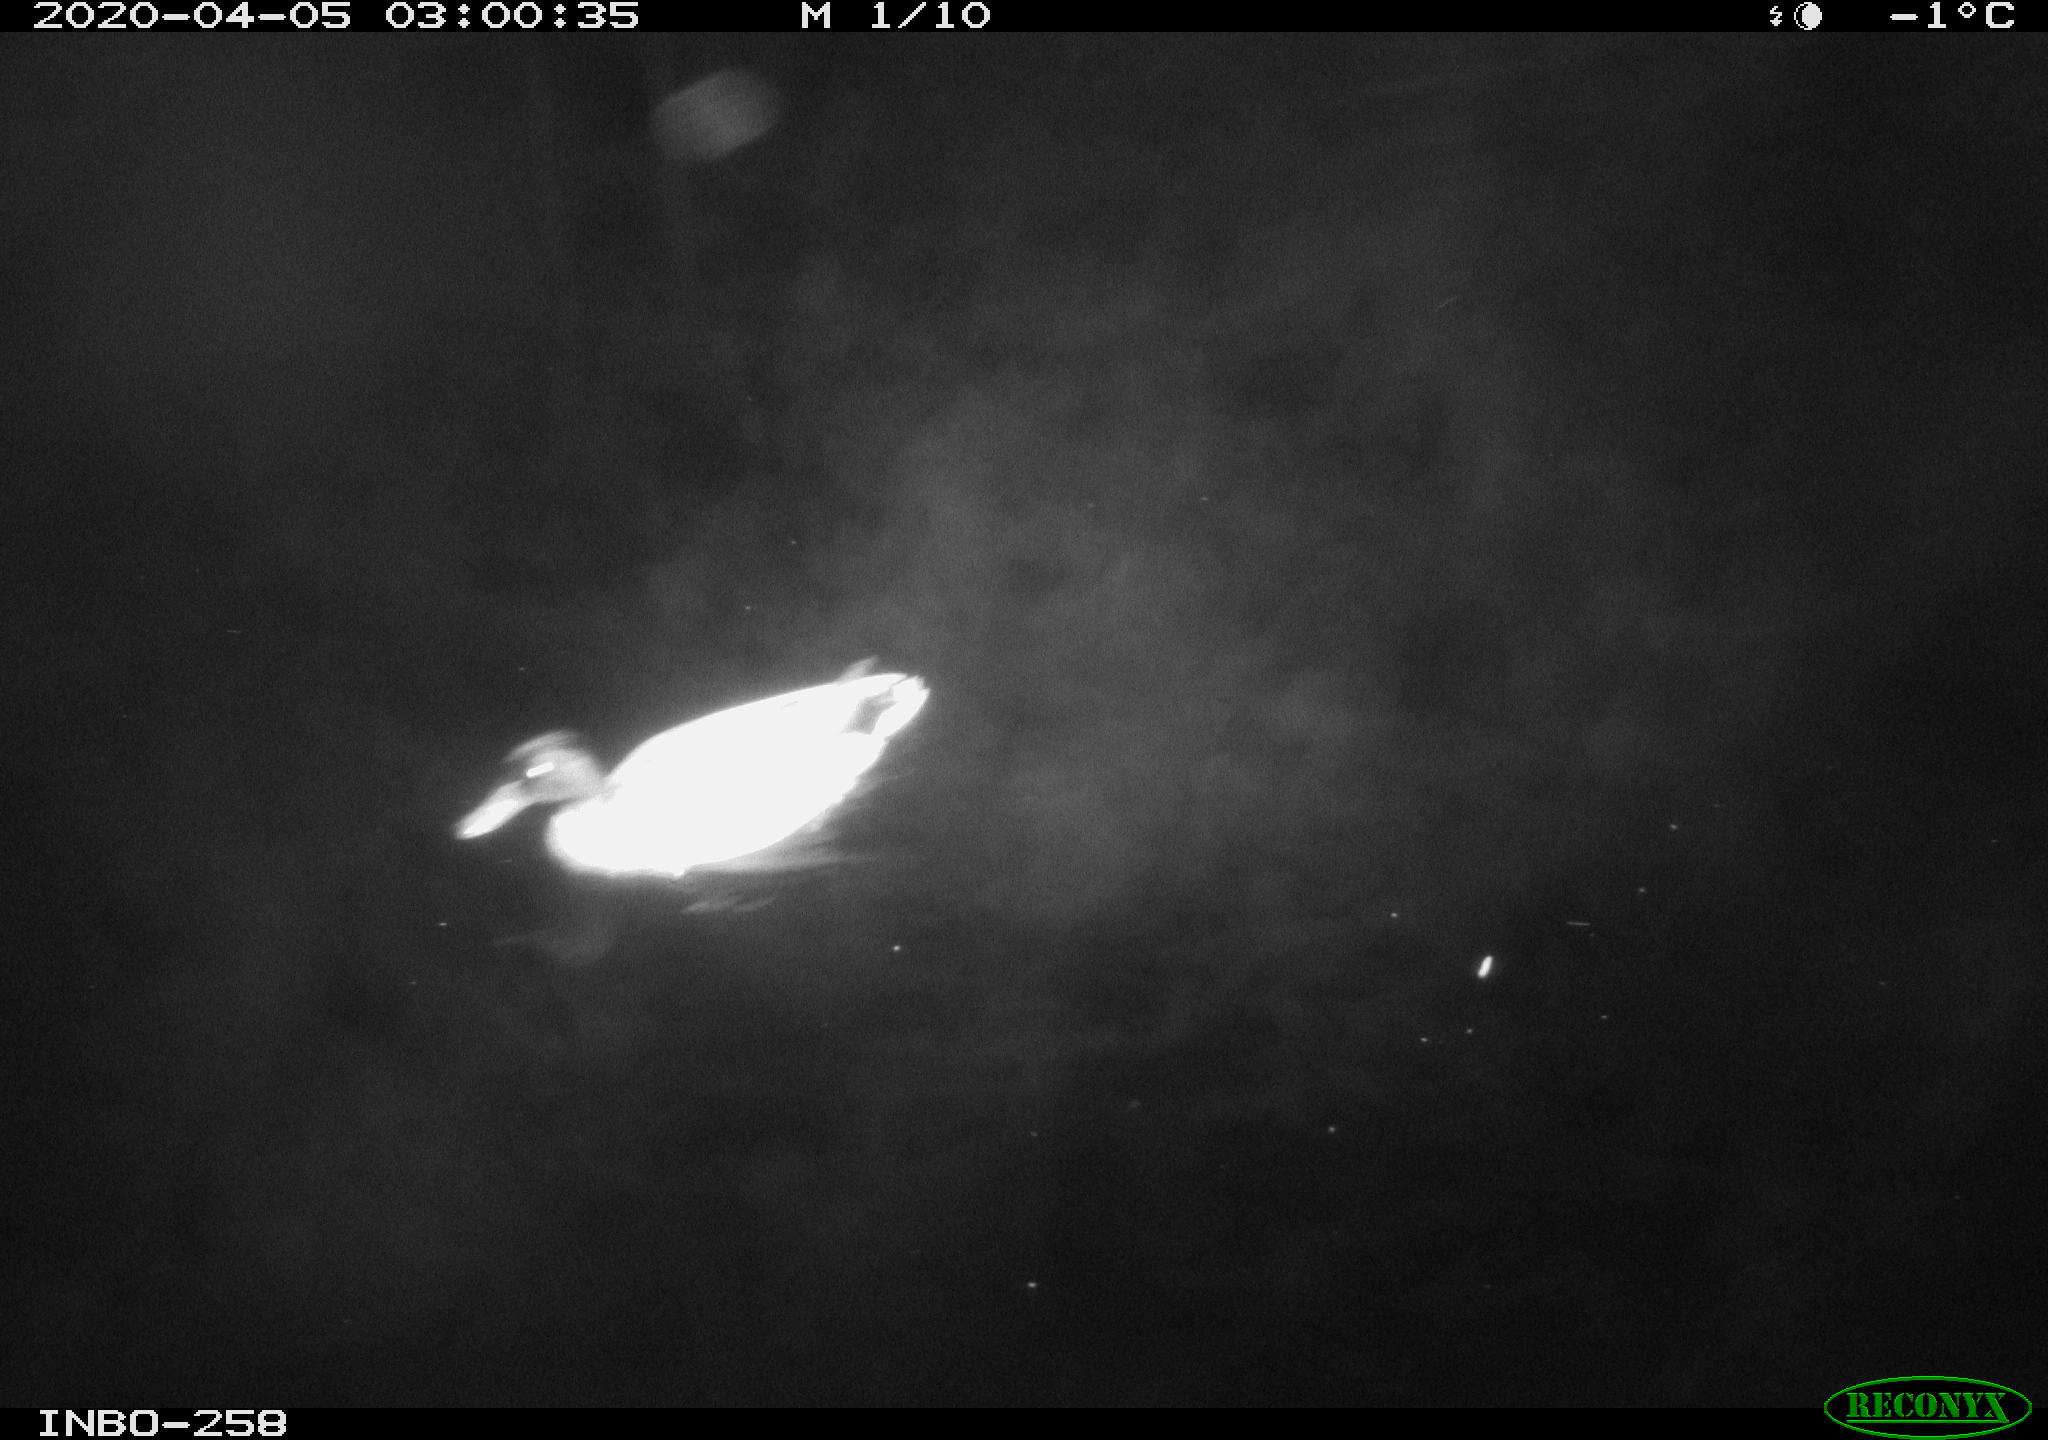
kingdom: Animalia
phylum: Chordata
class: Aves
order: Anseriformes
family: Anatidae
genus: Anas
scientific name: Anas platyrhynchos
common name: Mallard
